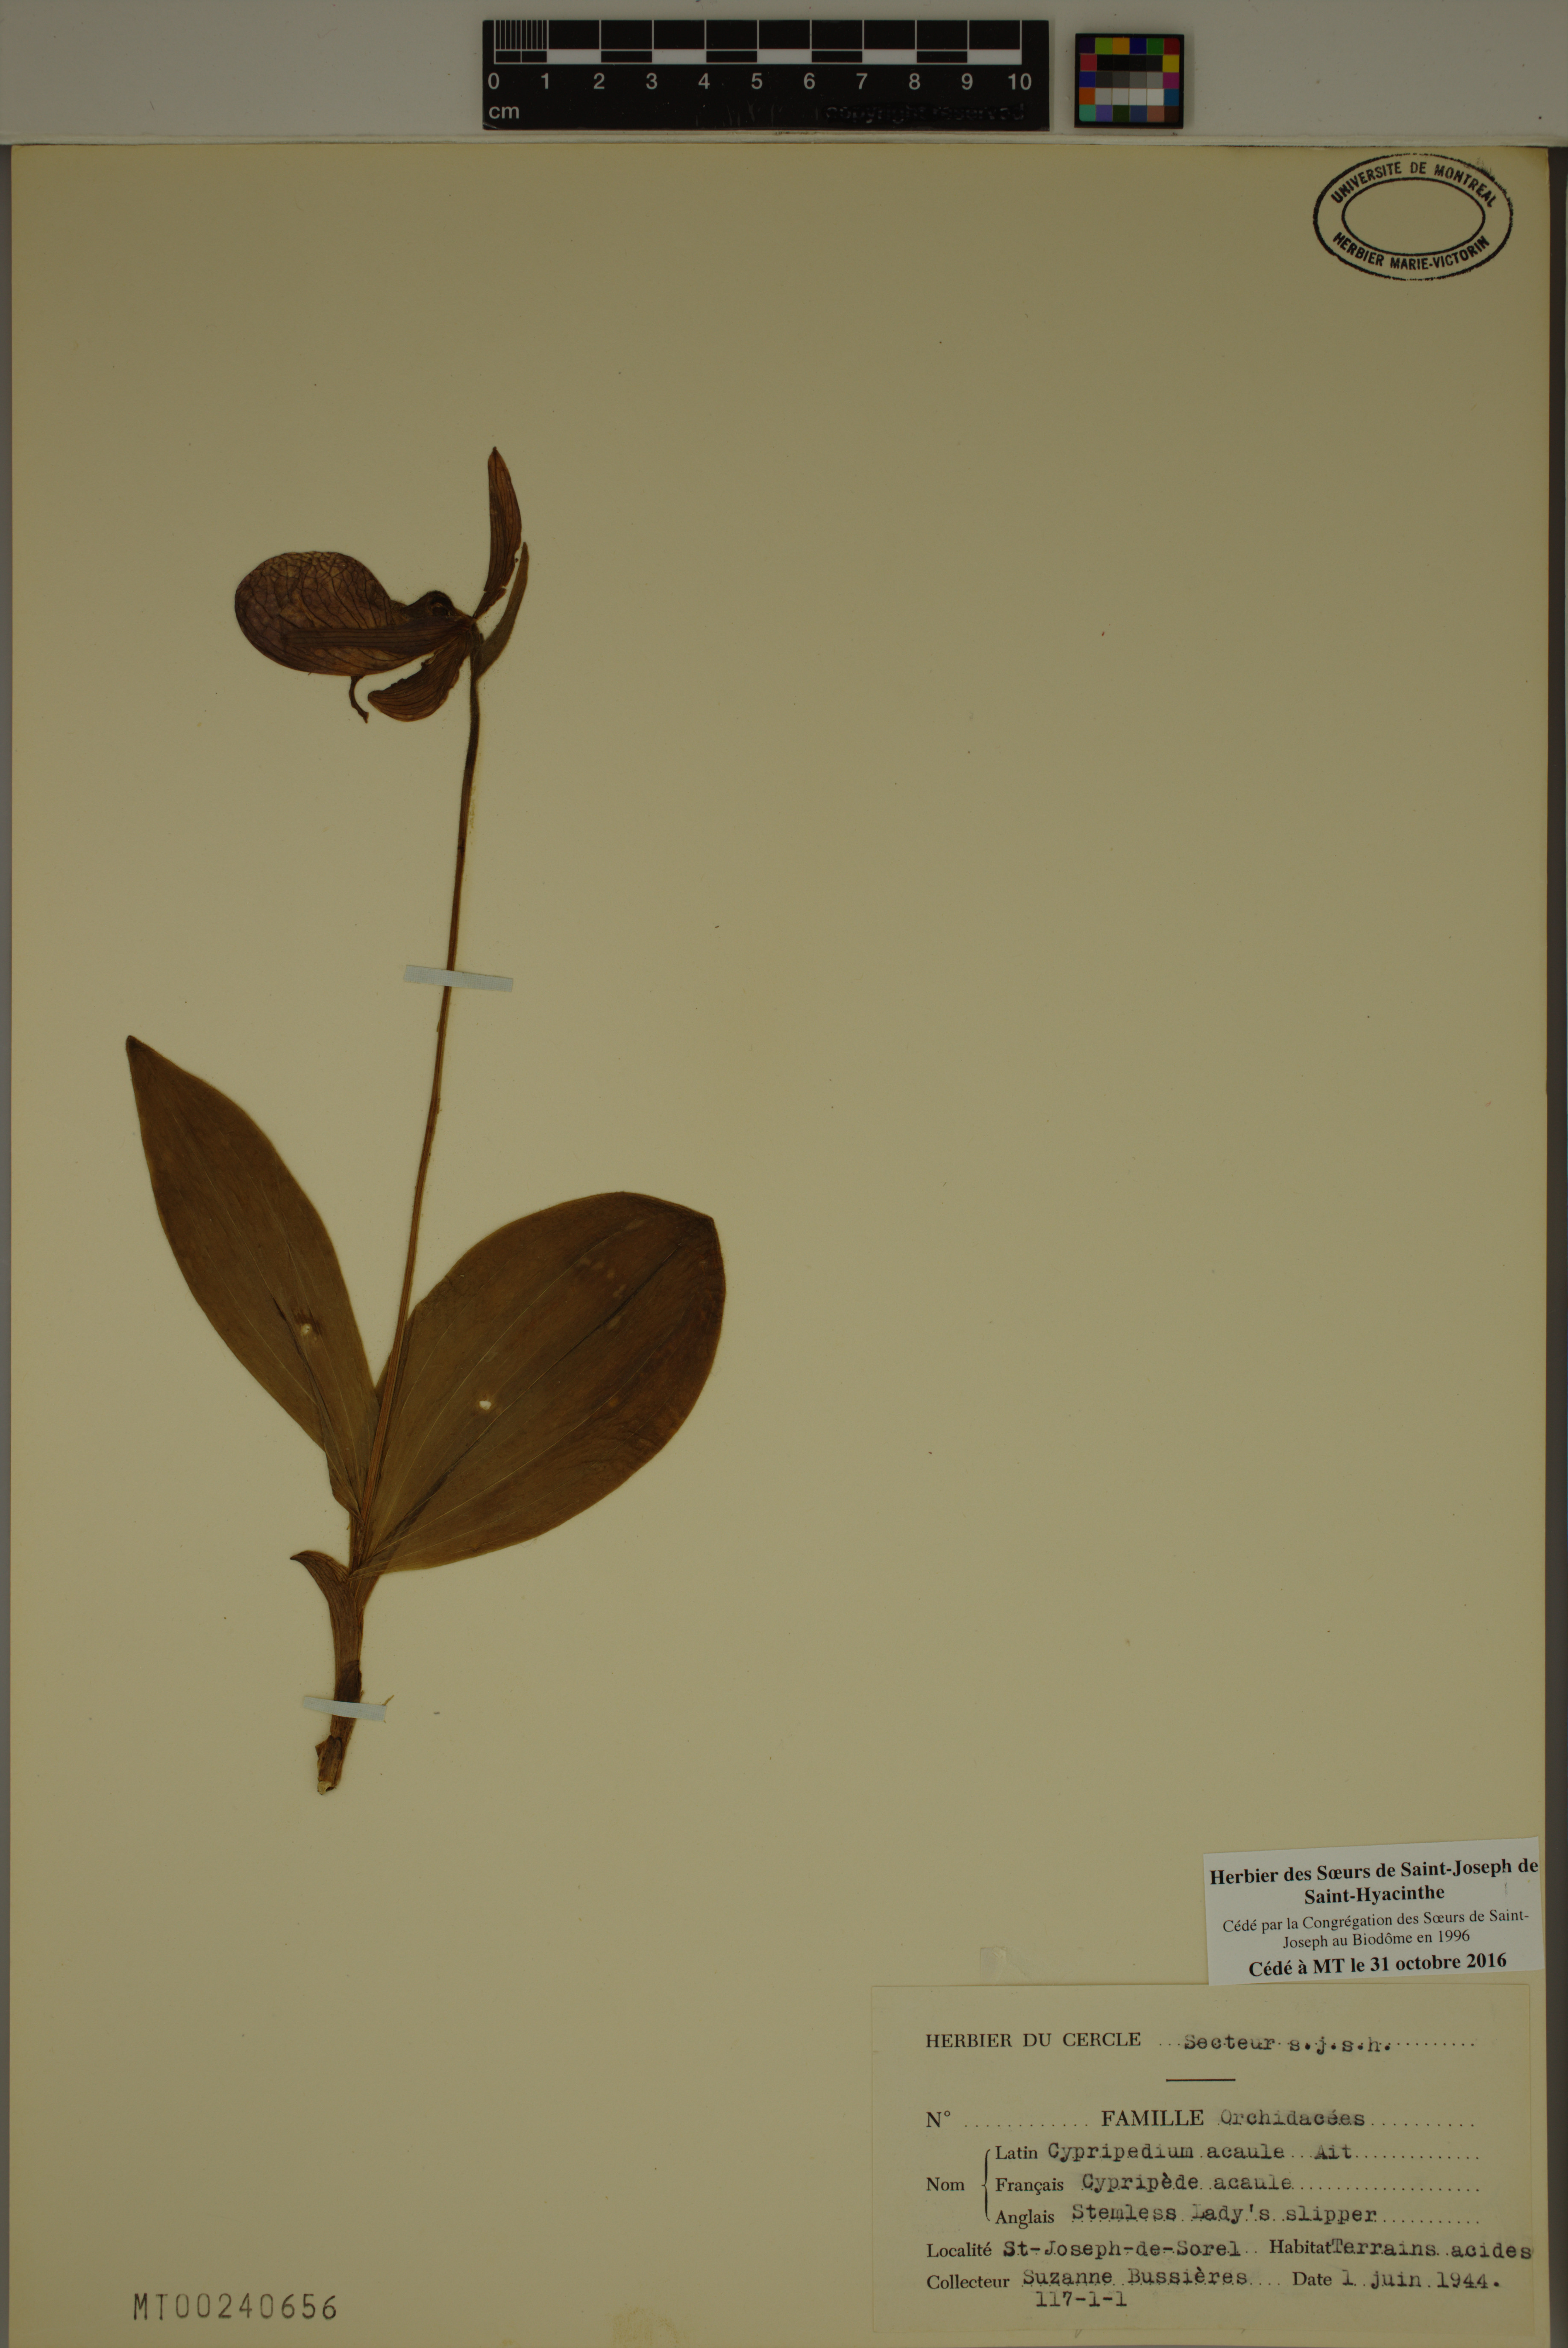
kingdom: Plantae
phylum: Tracheophyta
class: Liliopsida
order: Asparagales
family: Orchidaceae
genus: Cypripedium
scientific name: Cypripedium acaule
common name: Pink lady's-slipper
